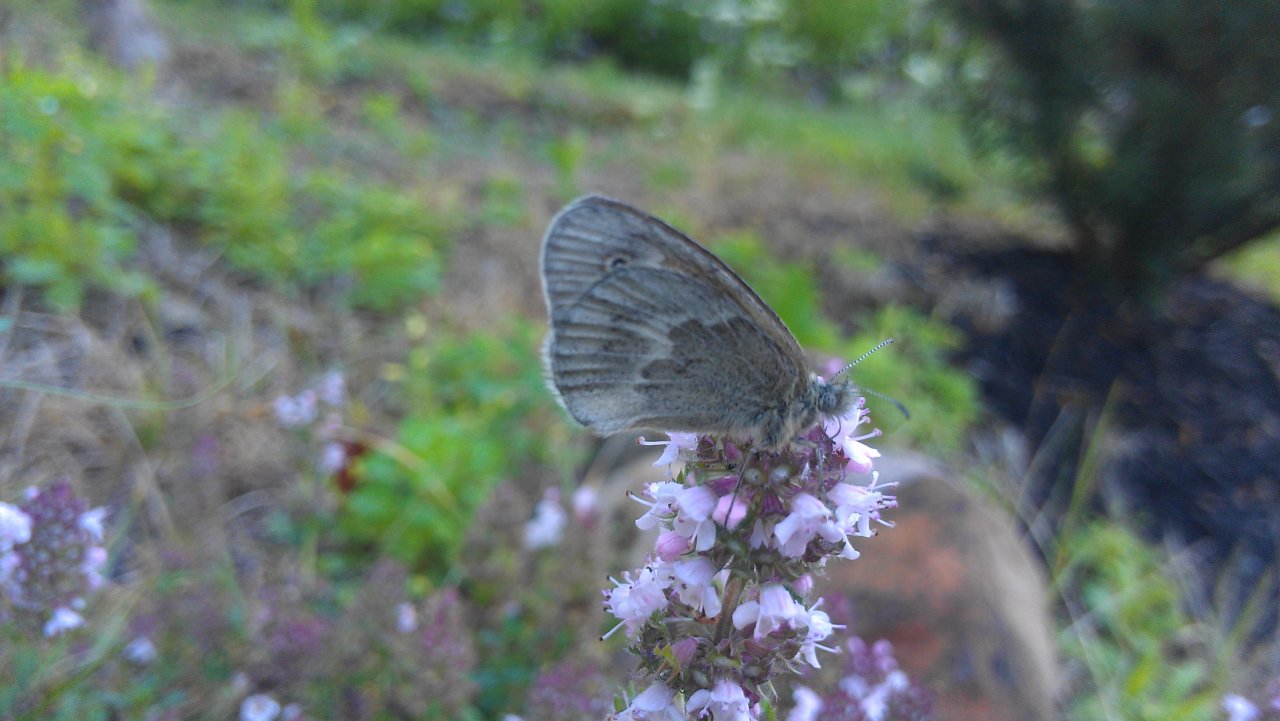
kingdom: Animalia
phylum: Arthropoda
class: Insecta
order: Lepidoptera
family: Nymphalidae
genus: Coenonympha
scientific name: Coenonympha tullia
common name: Large Heath
